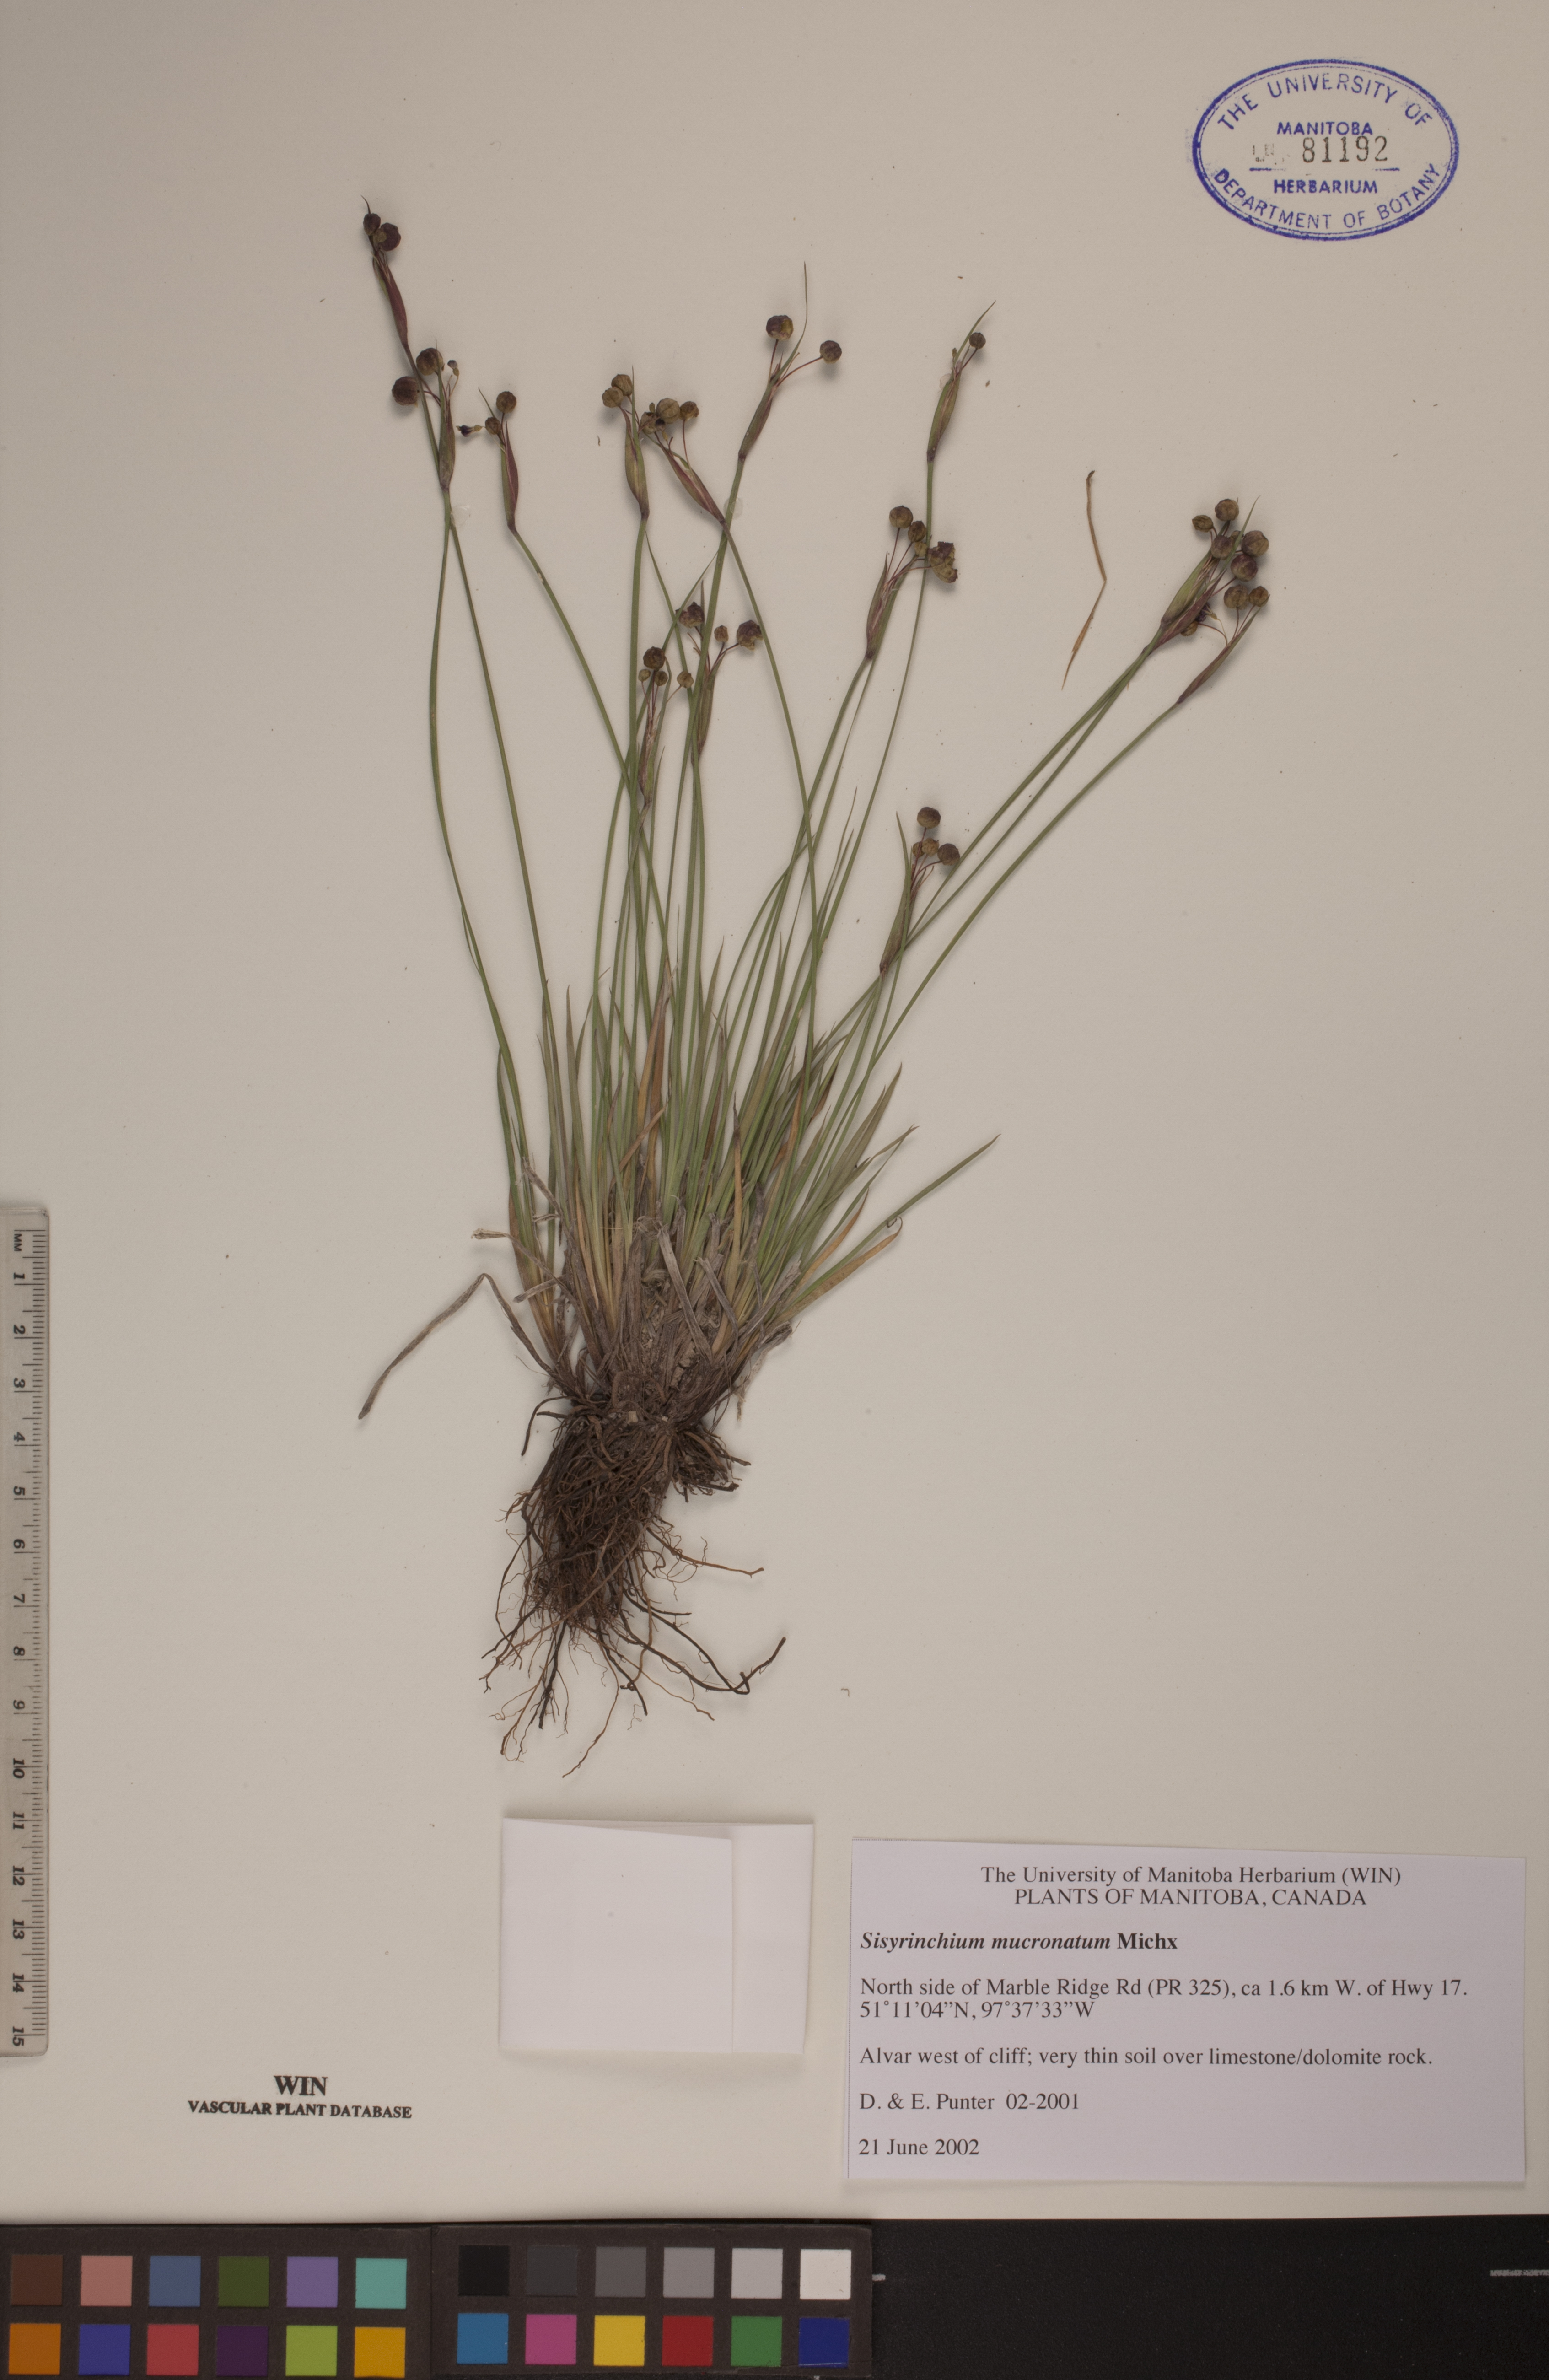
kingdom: Plantae
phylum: Tracheophyta
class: Liliopsida
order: Asparagales
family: Iridaceae
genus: Sisyrinchium
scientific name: Sisyrinchium mucronatum
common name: Eastern blue-eyed-grass
